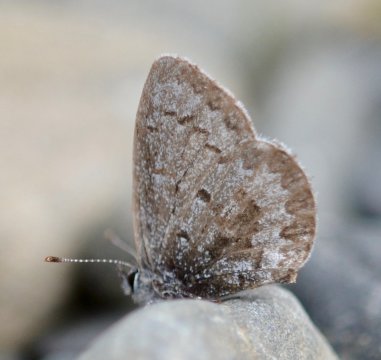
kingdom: Animalia
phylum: Arthropoda
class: Insecta
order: Lepidoptera
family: Lycaenidae
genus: Celastrina
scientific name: Celastrina lucia
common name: Northern Spring Azure
